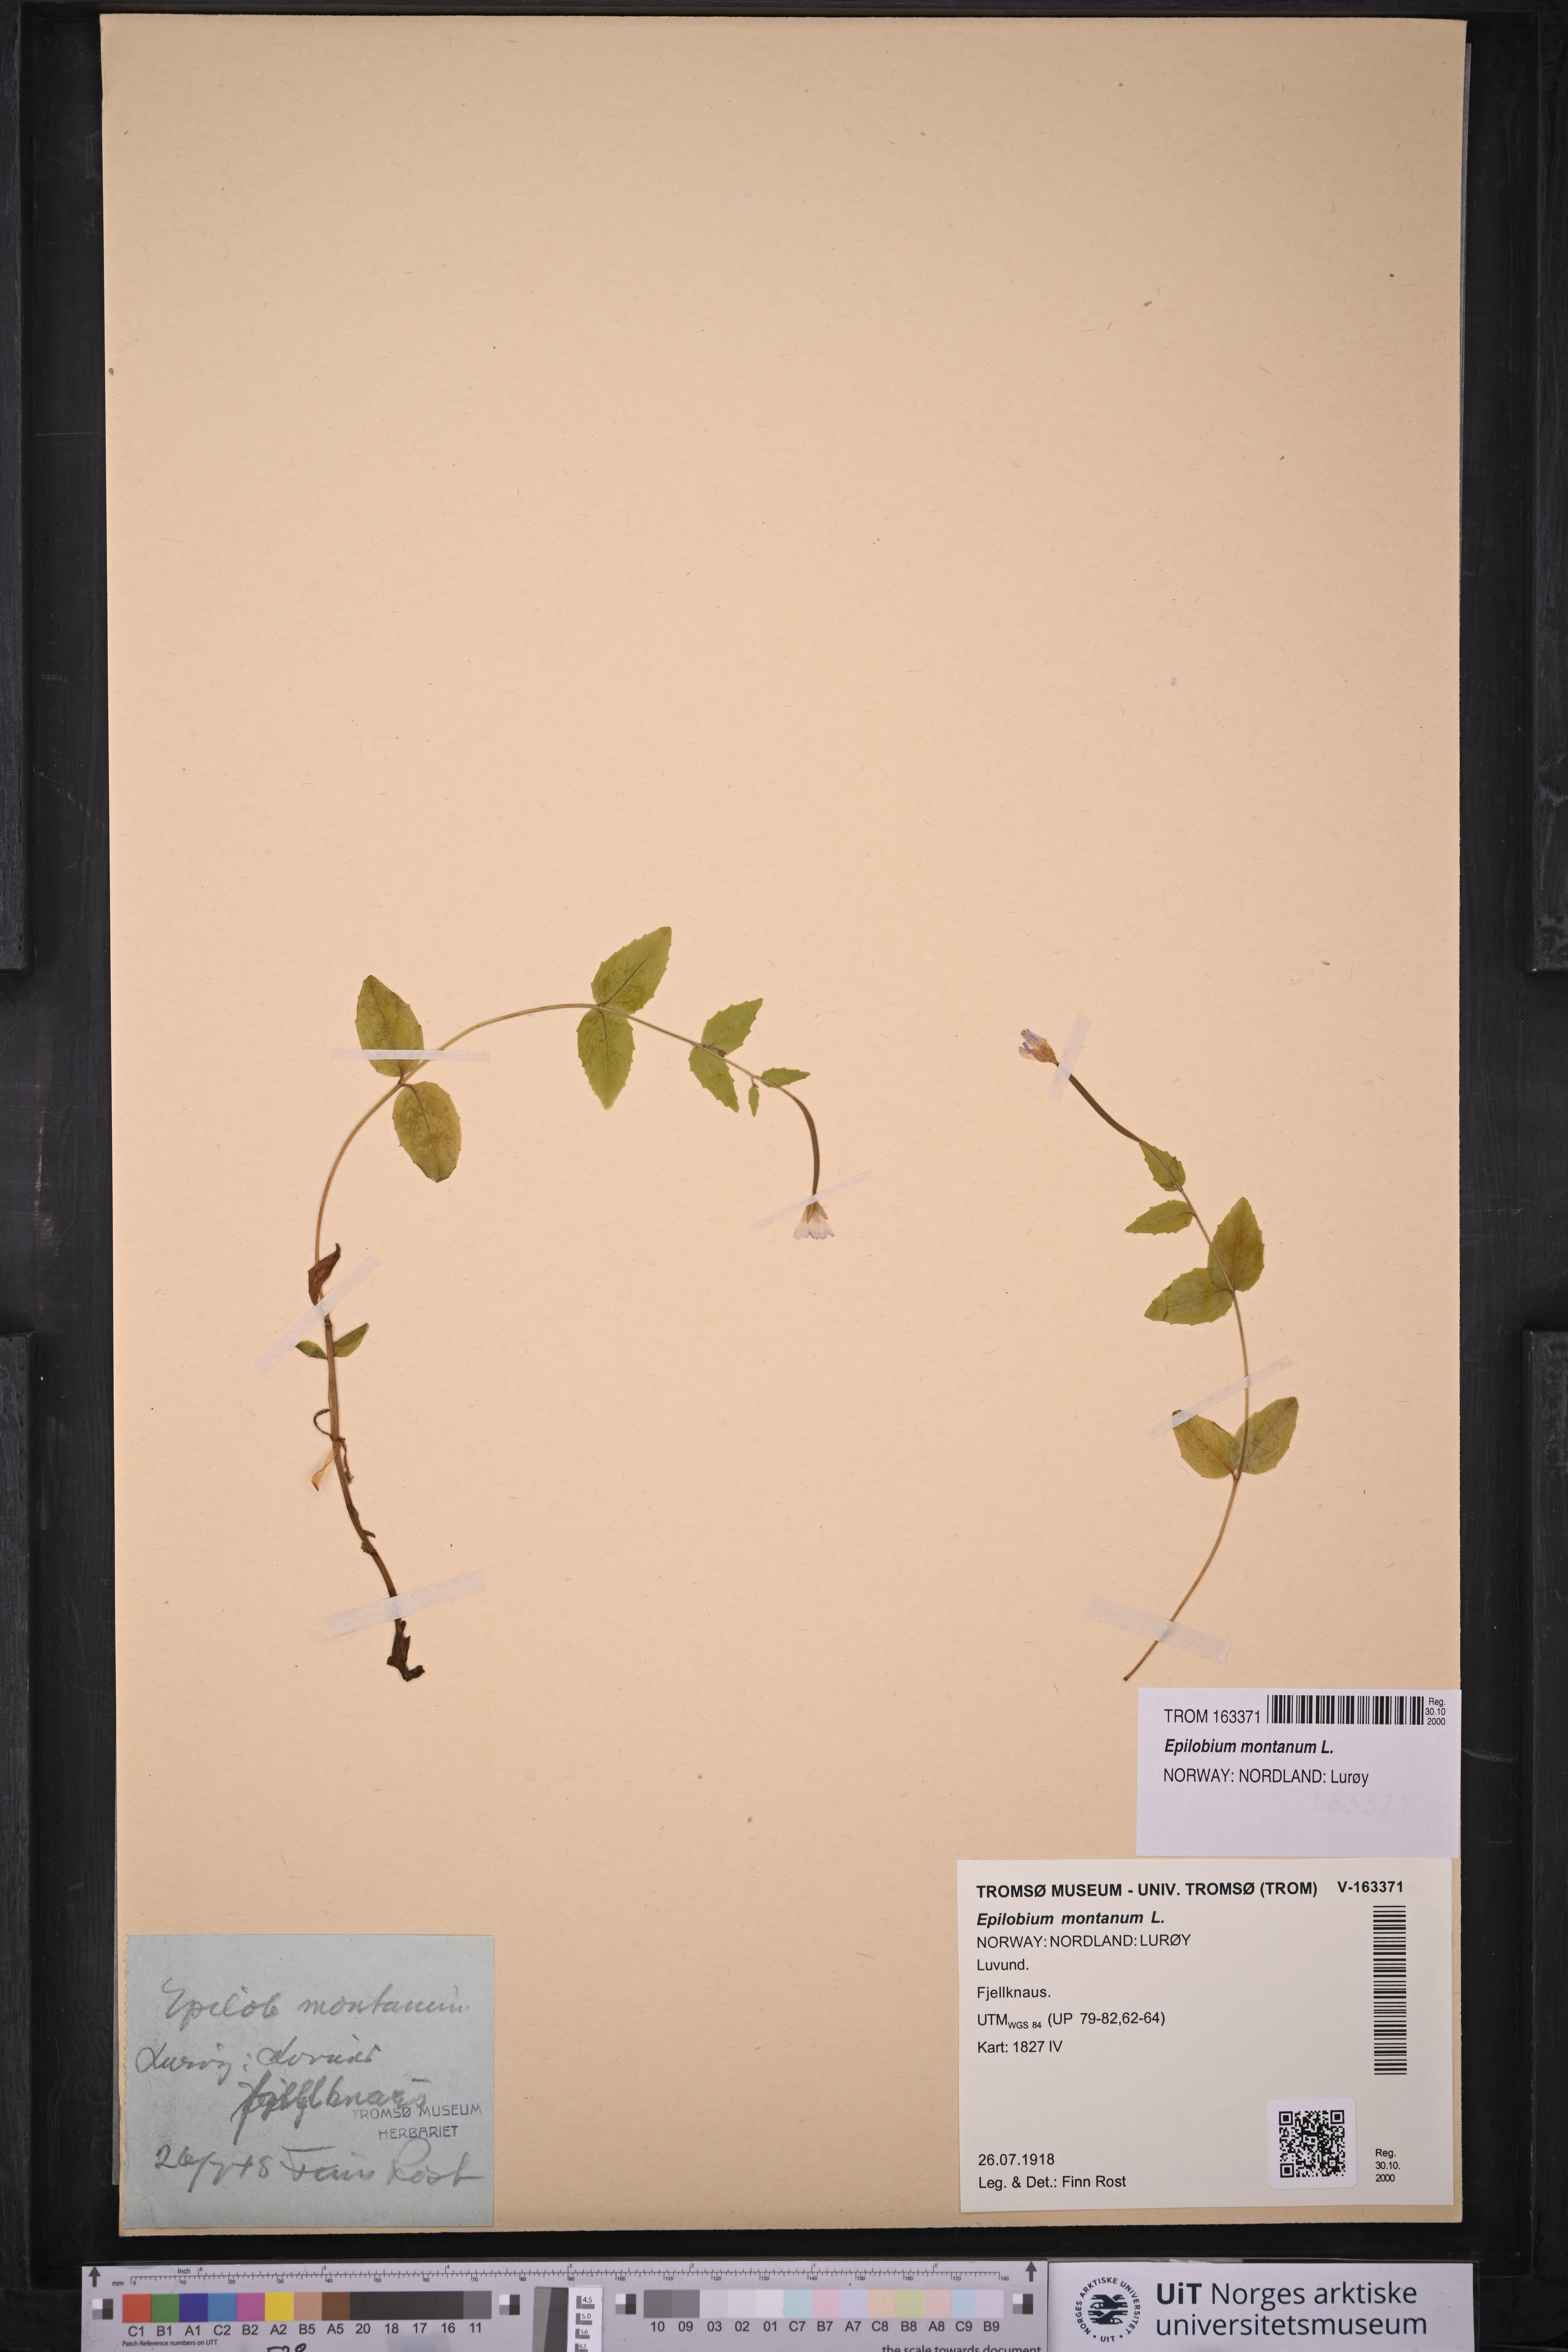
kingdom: Plantae
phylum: Tracheophyta
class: Magnoliopsida
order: Myrtales
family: Onagraceae
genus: Epilobium
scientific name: Epilobium montanum
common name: Broad-leaved willowherb
